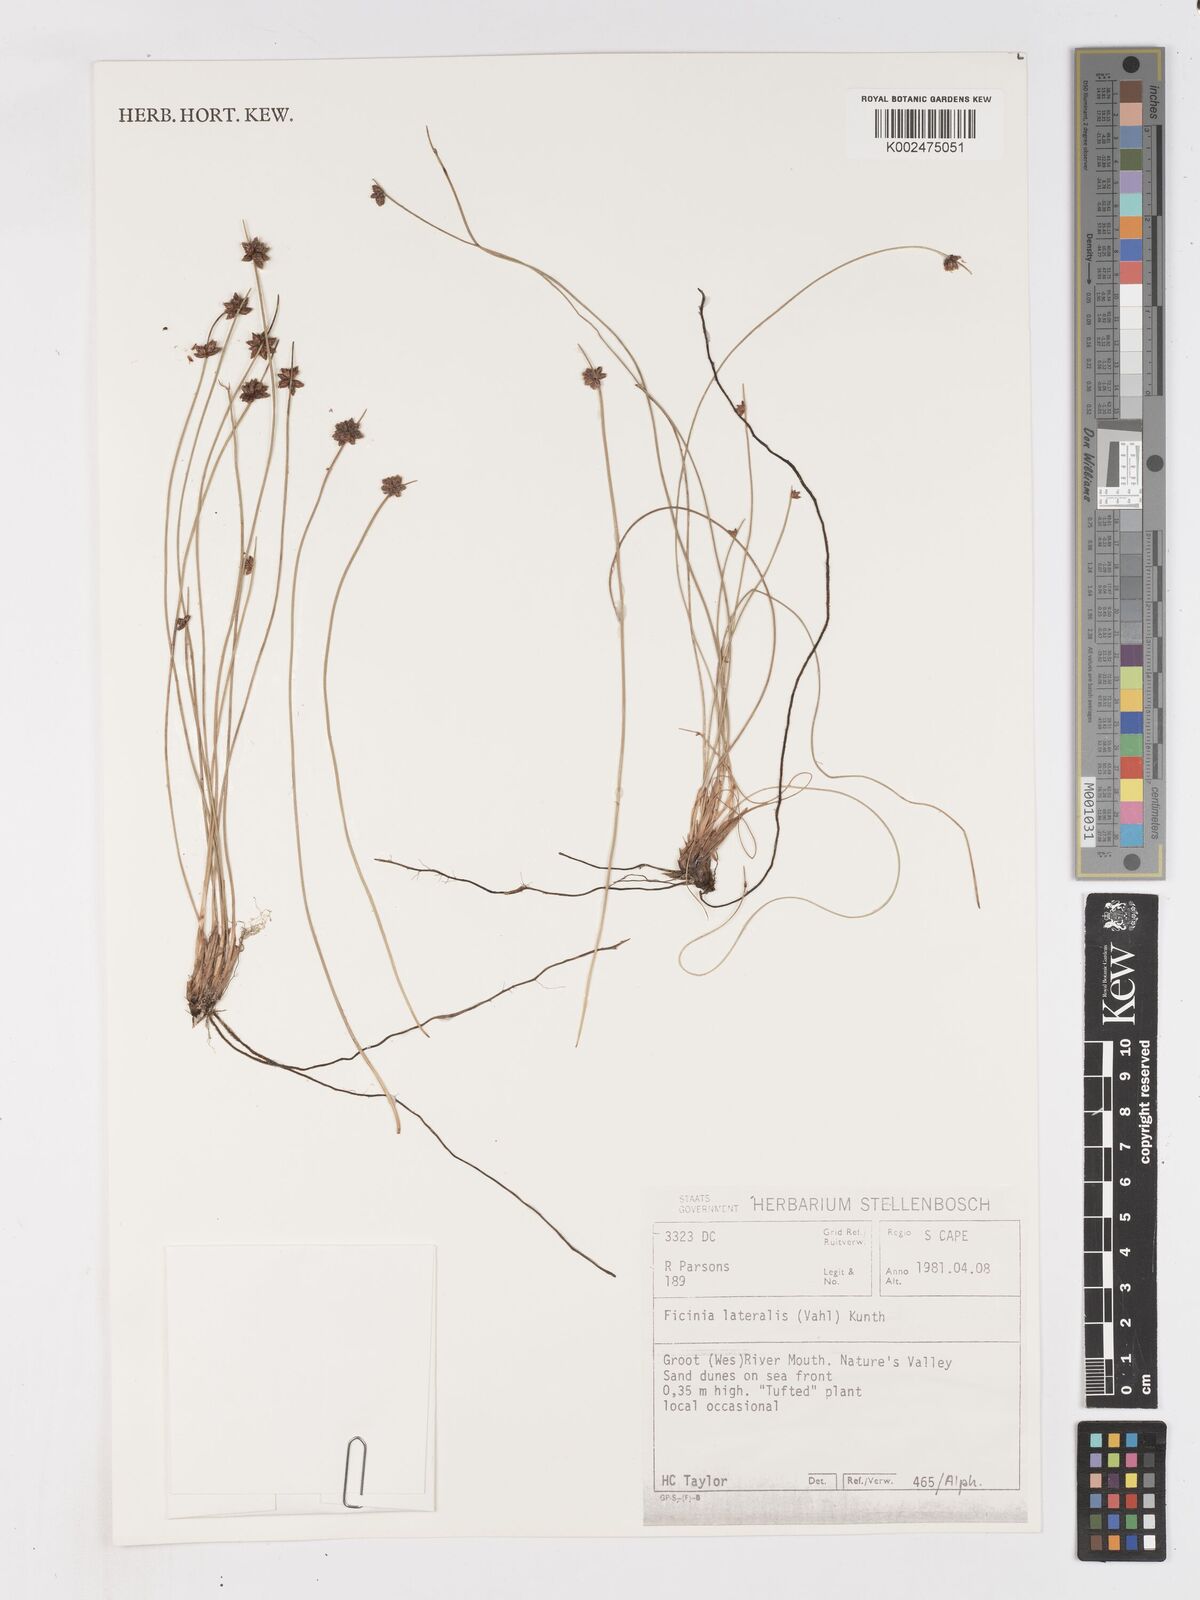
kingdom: Plantae
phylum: Tracheophyta
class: Liliopsida
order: Poales
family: Cyperaceae
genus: Ficinia
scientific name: Ficinia lateralis
